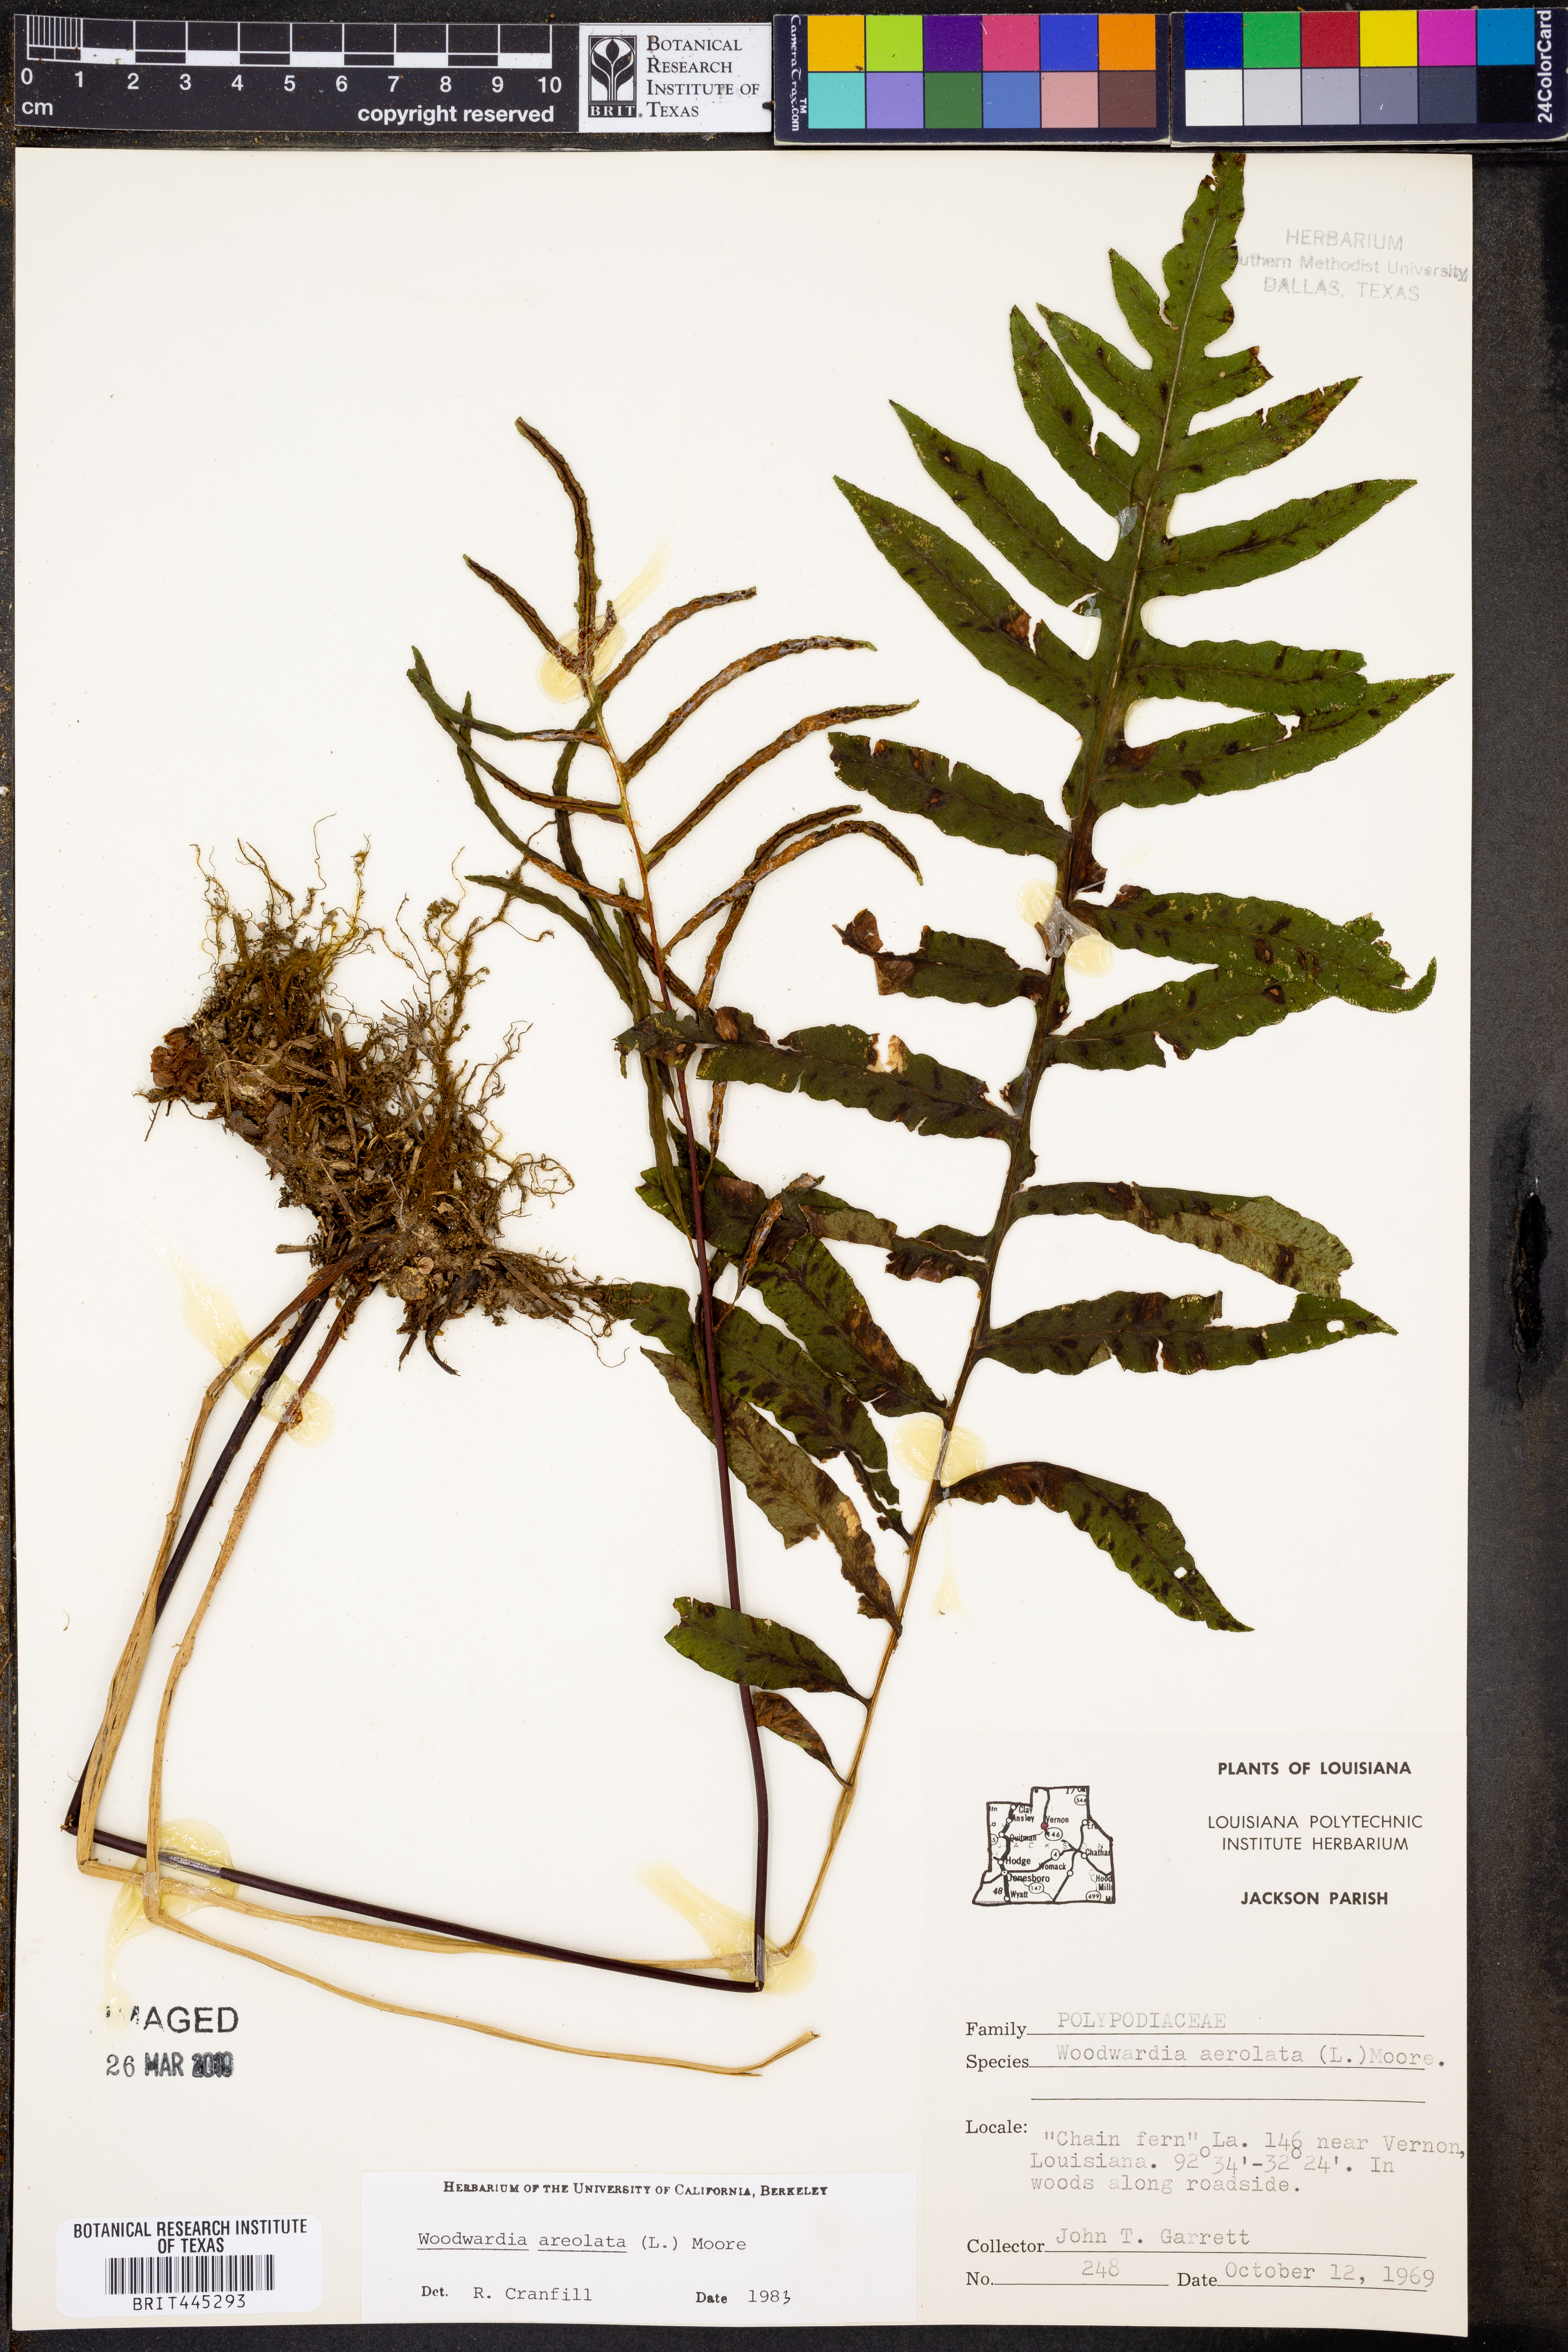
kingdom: Plantae
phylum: Tracheophyta
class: Polypodiopsida
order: Polypodiales
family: Blechnaceae
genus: Lorinseria
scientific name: Lorinseria areolata
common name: Dwarf chain fern
